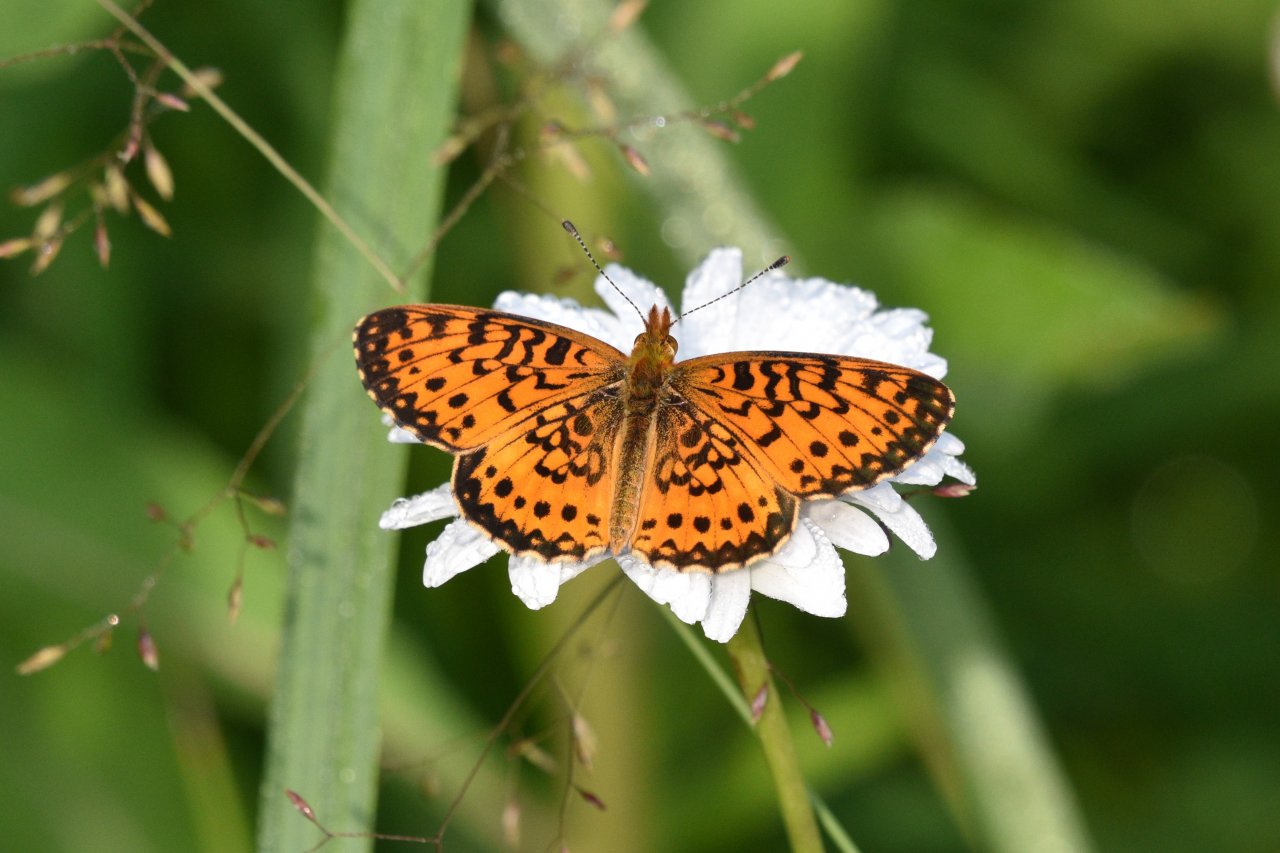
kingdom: Animalia
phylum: Arthropoda
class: Insecta
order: Lepidoptera
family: Nymphalidae
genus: Boloria
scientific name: Boloria selene
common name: Silver-bordered Fritillary
